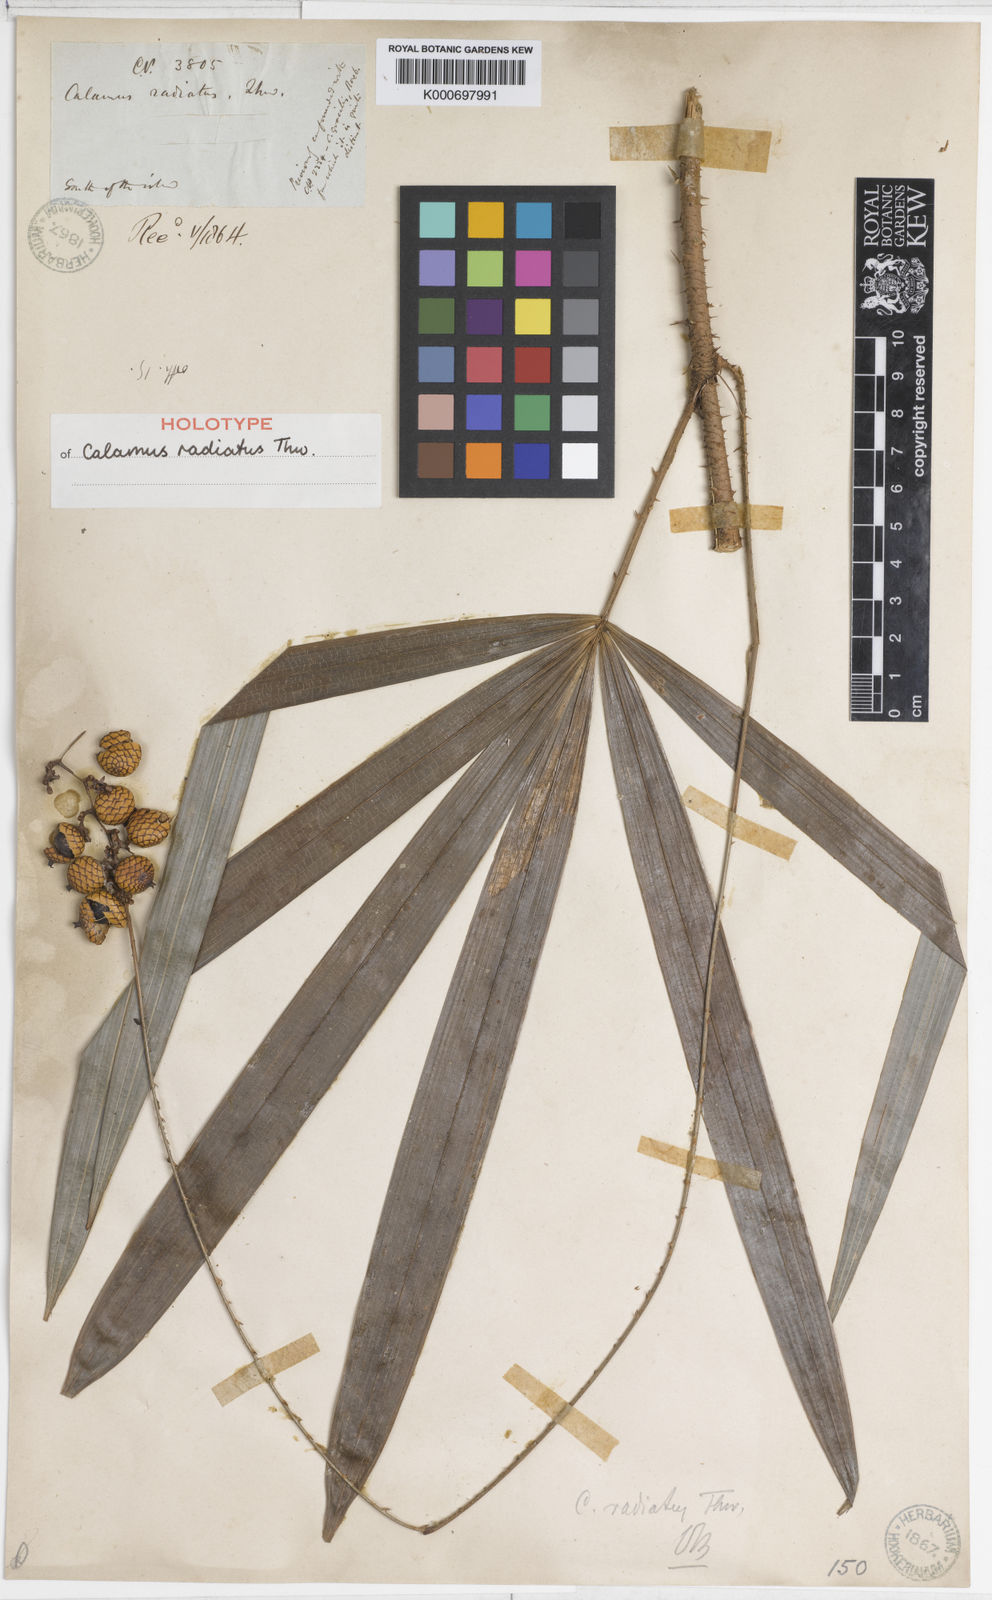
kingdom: Plantae
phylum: Tracheophyta
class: Liliopsida
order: Arecales
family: Arecaceae
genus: Calamus
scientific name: Calamus radiatus
